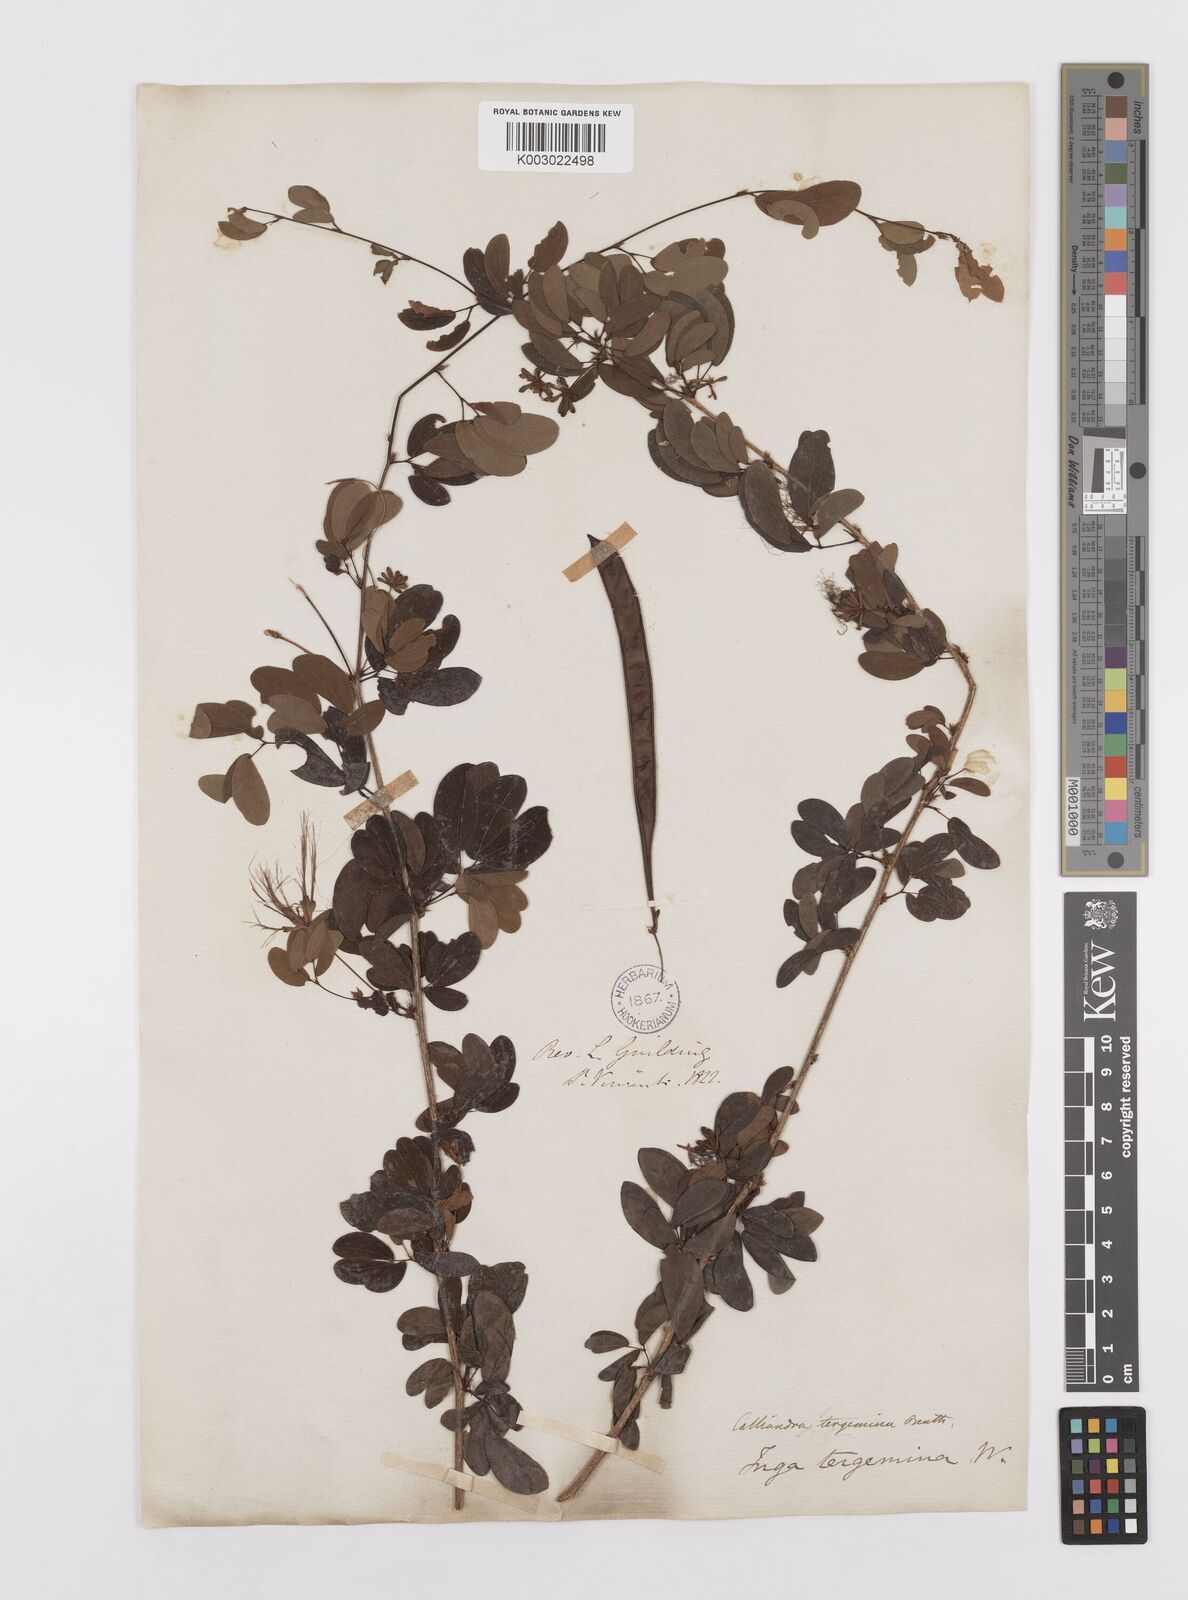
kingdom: Plantae
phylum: Tracheophyta
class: Magnoliopsida
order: Fabales
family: Fabaceae
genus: Calliandra
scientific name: Calliandra tergemina
